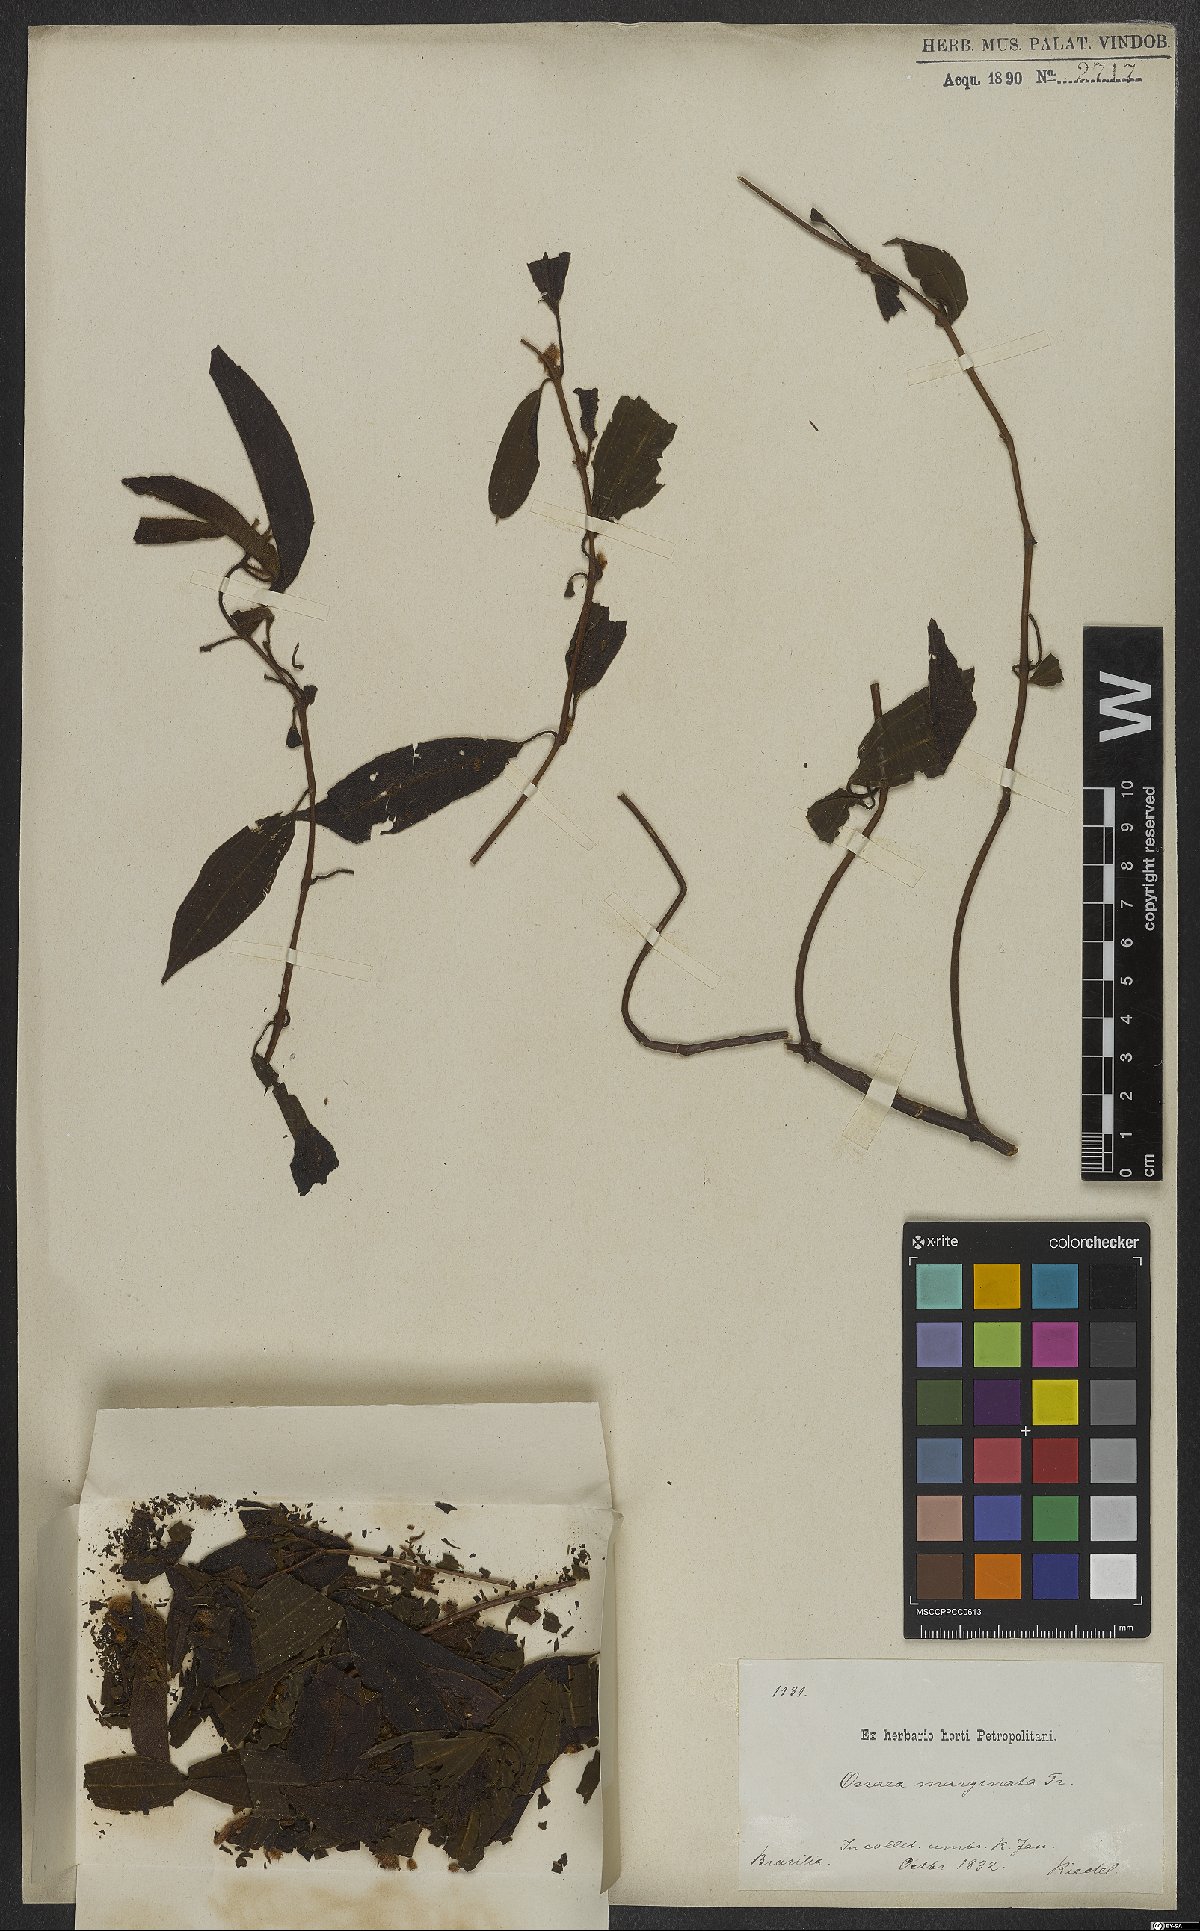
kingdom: Plantae
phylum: Tracheophyta
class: Magnoliopsida
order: Myrtales
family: Melastomataceae
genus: Miconia
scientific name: Miconia leamarginata
